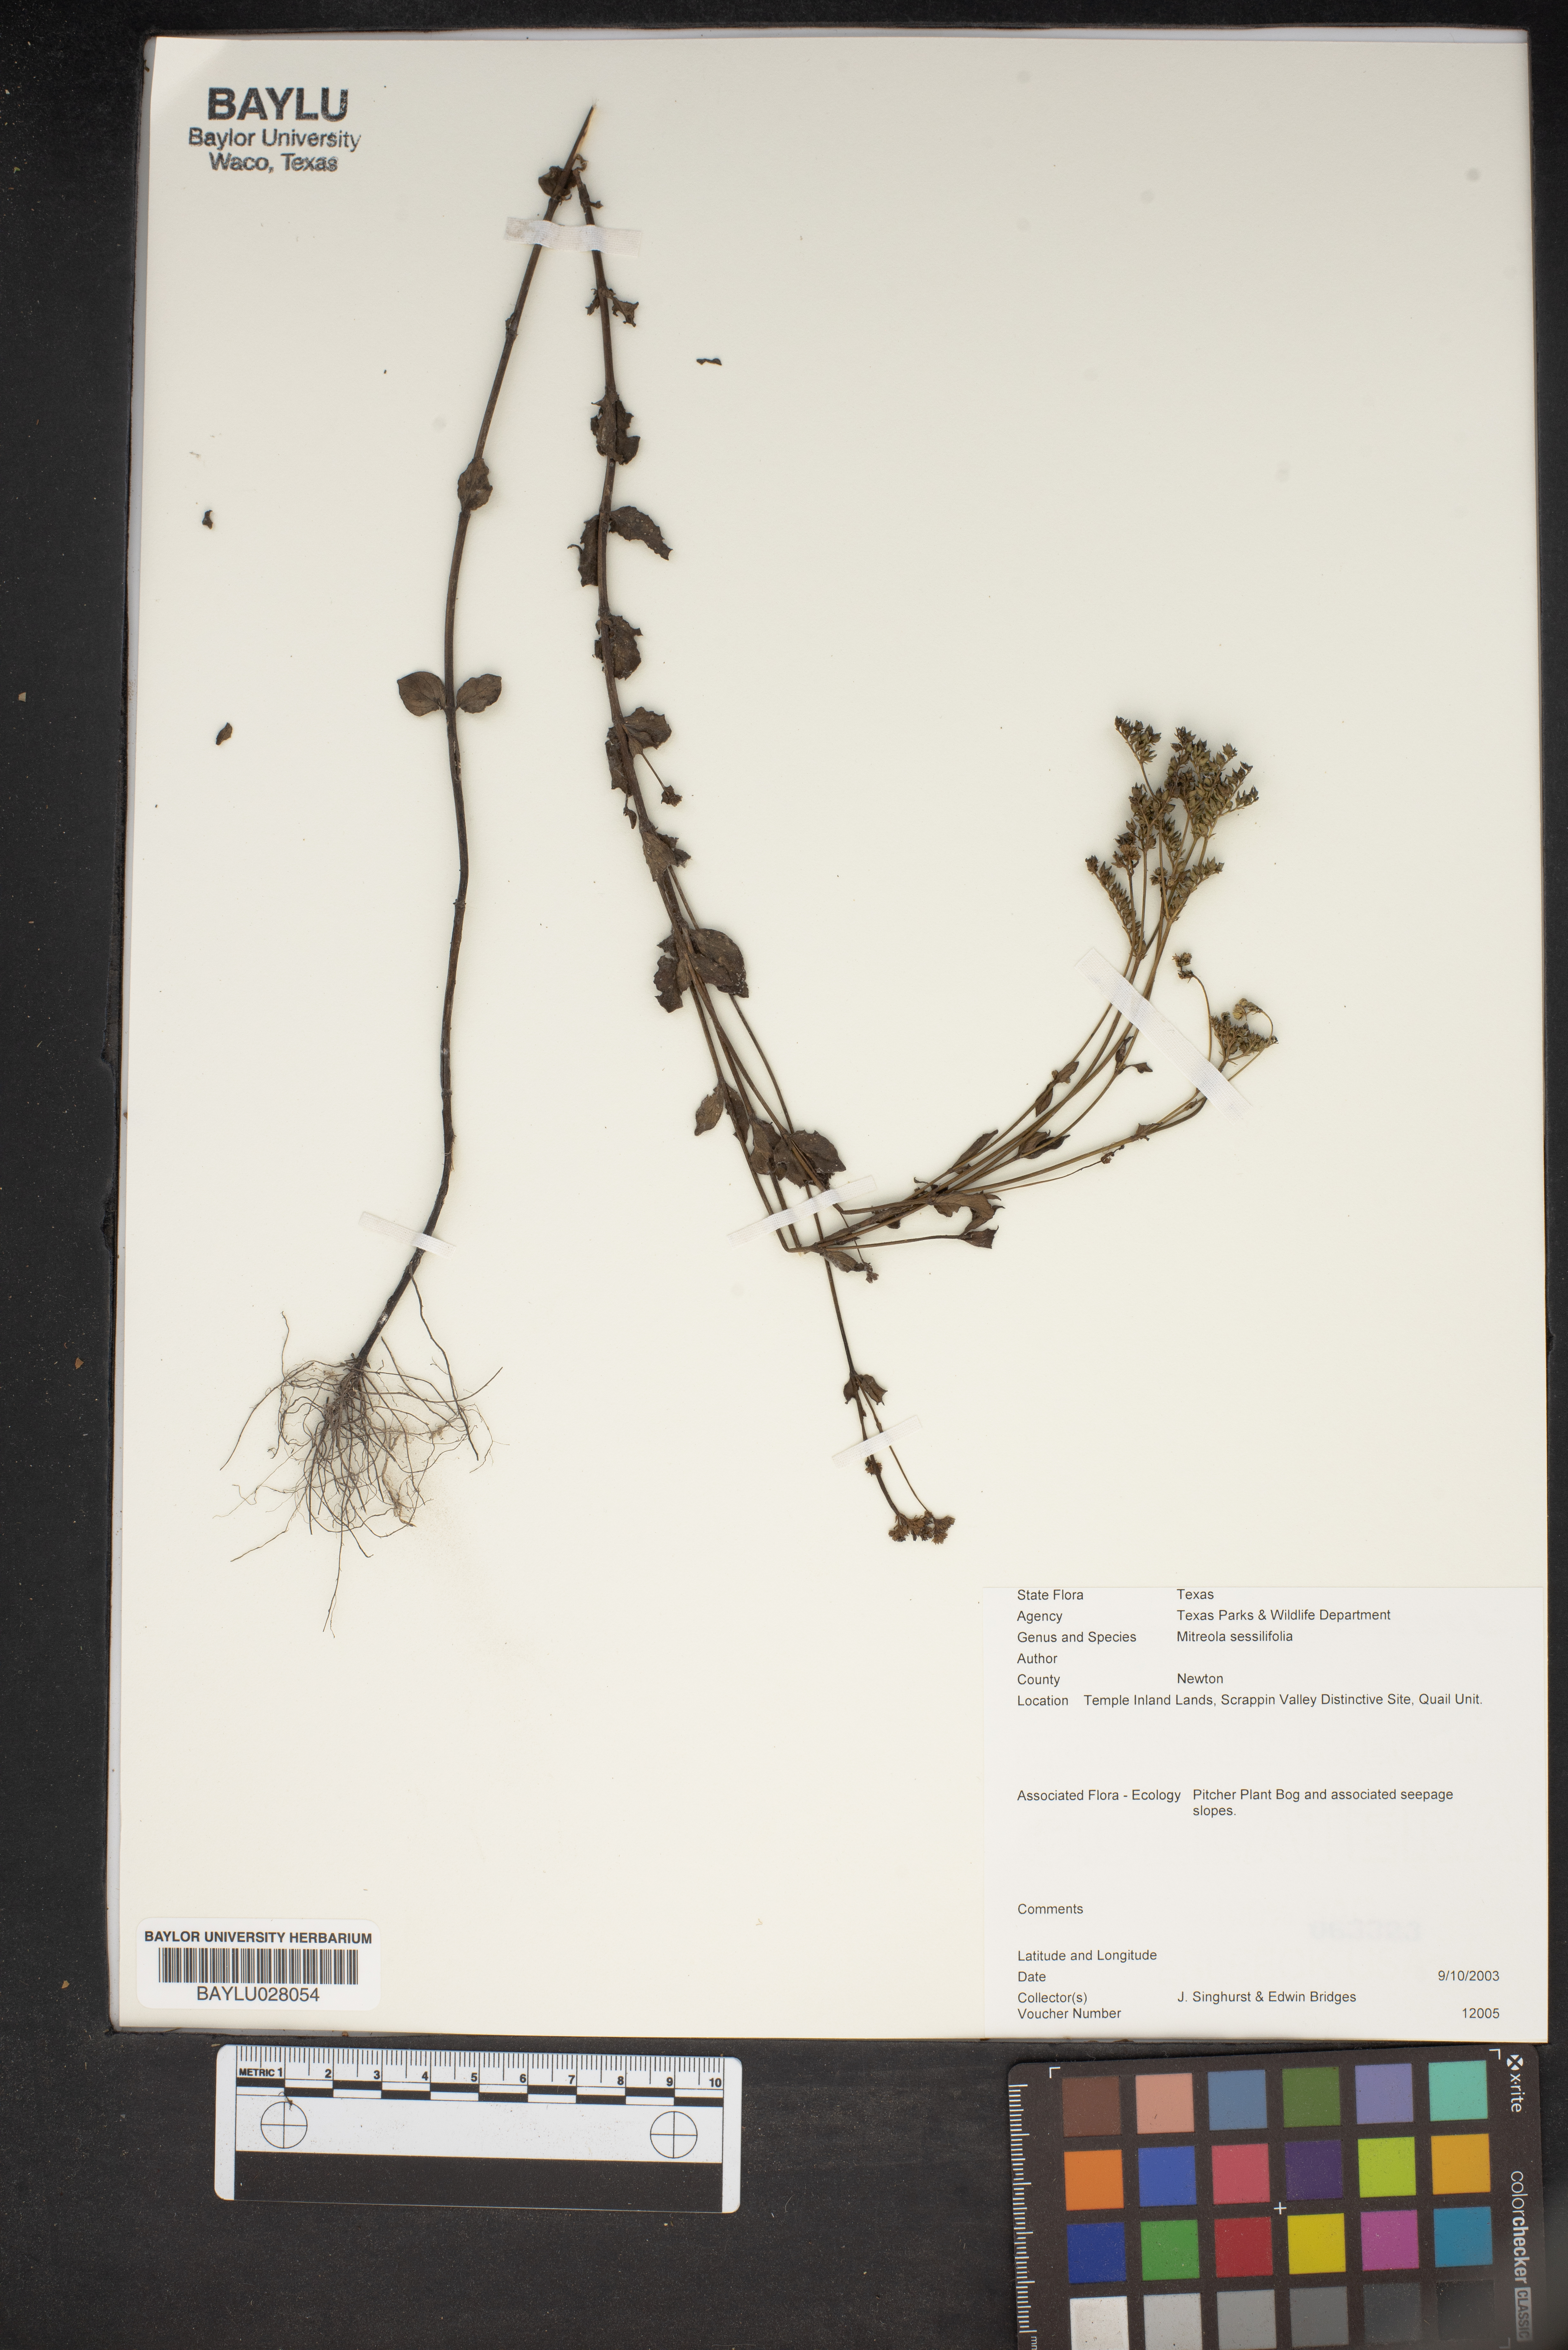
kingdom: Plantae
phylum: Tracheophyta
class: Magnoliopsida
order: Gentianales
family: Loganiaceae
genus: Mitreola
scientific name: Mitreola sessilifolia
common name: Swamp hornpod
